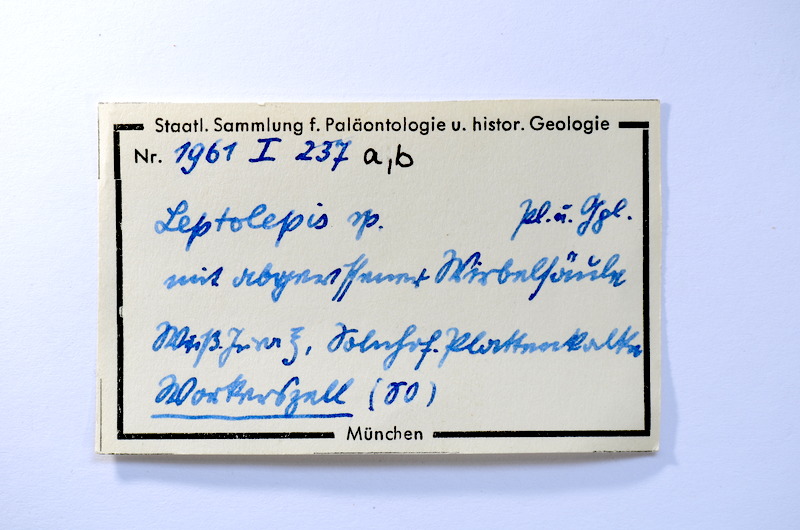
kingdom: Animalia
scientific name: Animalia
